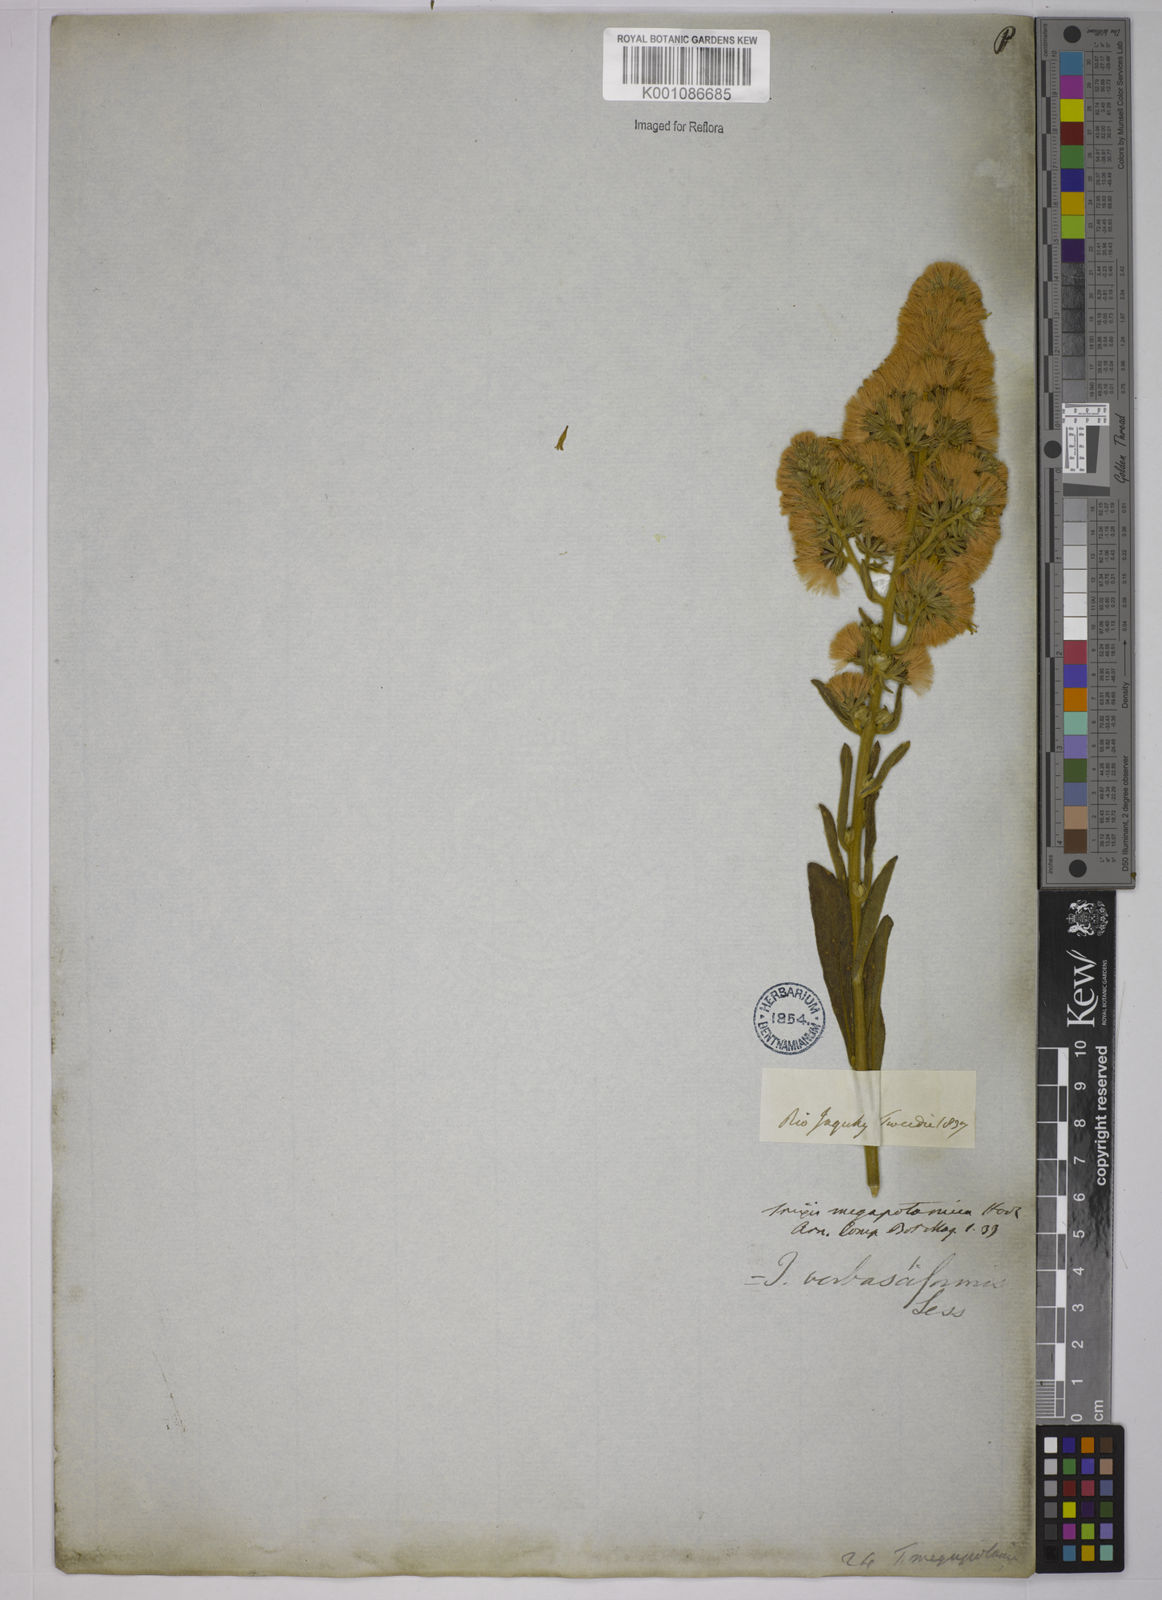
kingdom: Plantae
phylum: Tracheophyta
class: Magnoliopsida
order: Asterales
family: Asteraceae
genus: Trixis
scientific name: Trixis nobilis
